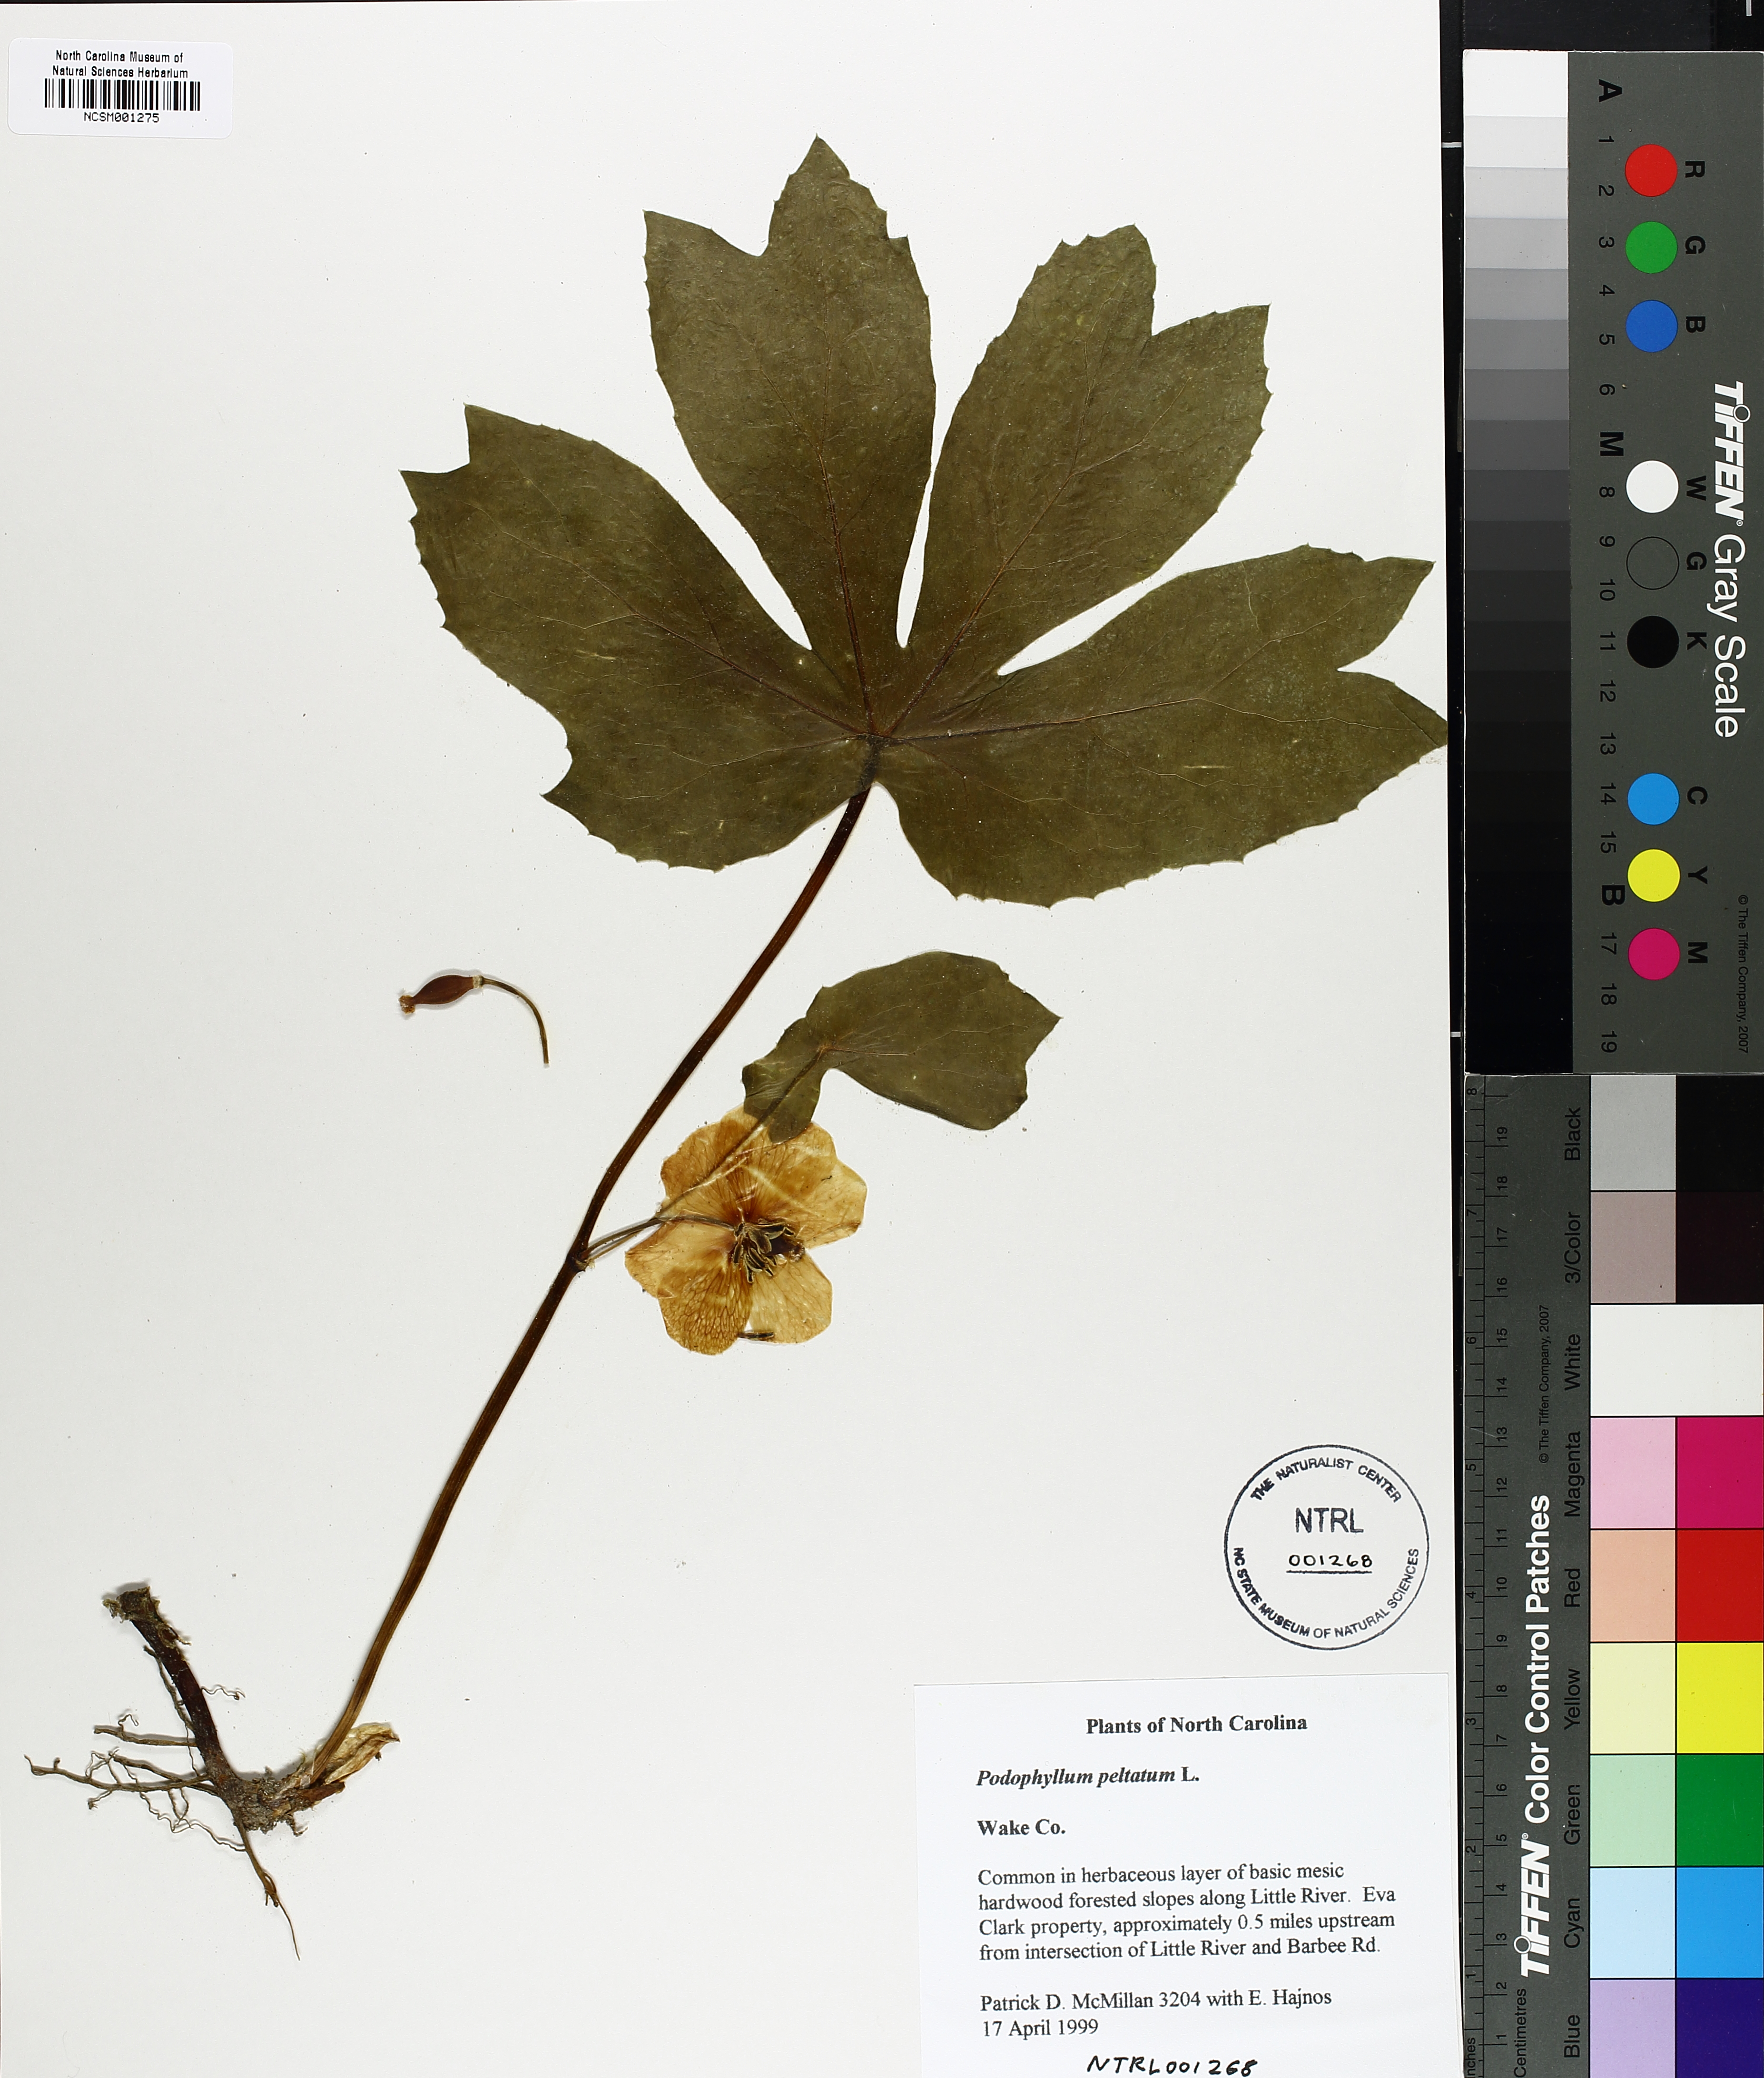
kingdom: Plantae
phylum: Tracheophyta
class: Magnoliopsida
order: Ranunculales
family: Berberidaceae
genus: Podophyllum
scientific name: Podophyllum peltatum
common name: Wild mandrake
